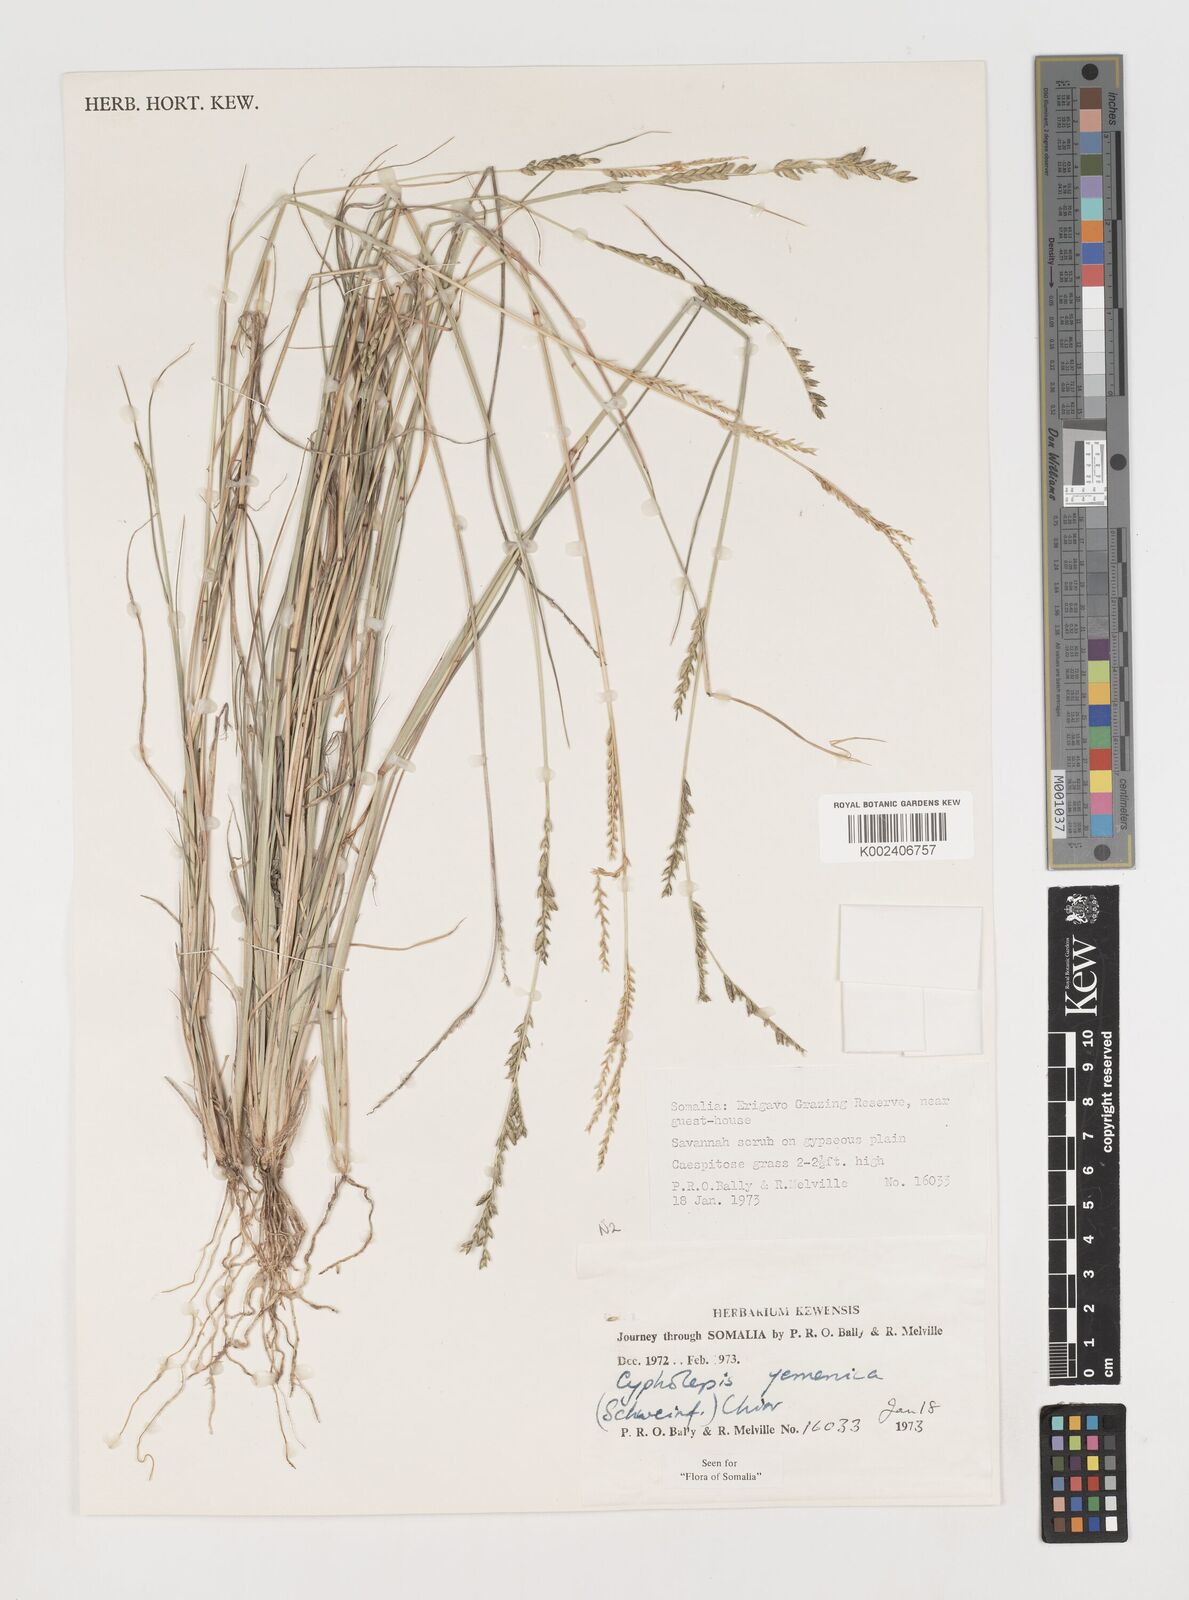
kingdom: Plantae
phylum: Tracheophyta
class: Liliopsida
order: Poales
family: Poaceae
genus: Disakisperma
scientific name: Disakisperma yemenicum
